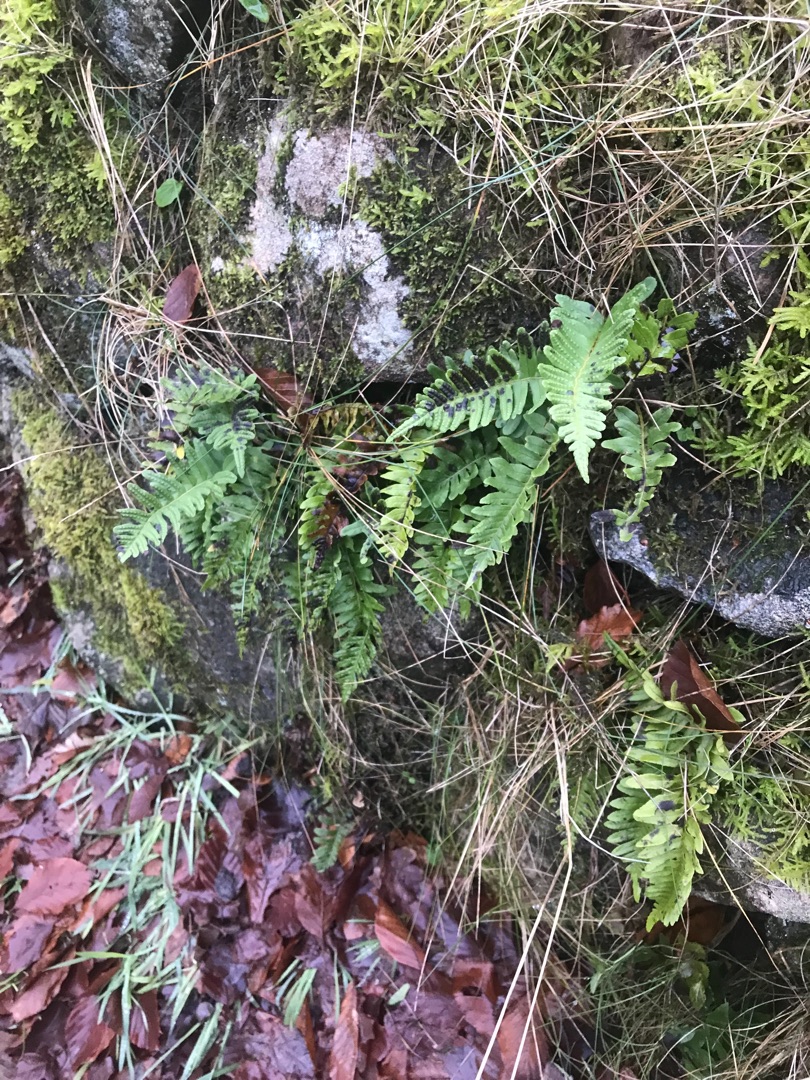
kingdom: Plantae
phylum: Tracheophyta
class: Polypodiopsida
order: Polypodiales
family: Polypodiaceae
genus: Polypodium
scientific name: Polypodium vulgare
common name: Almindelig engelsød
